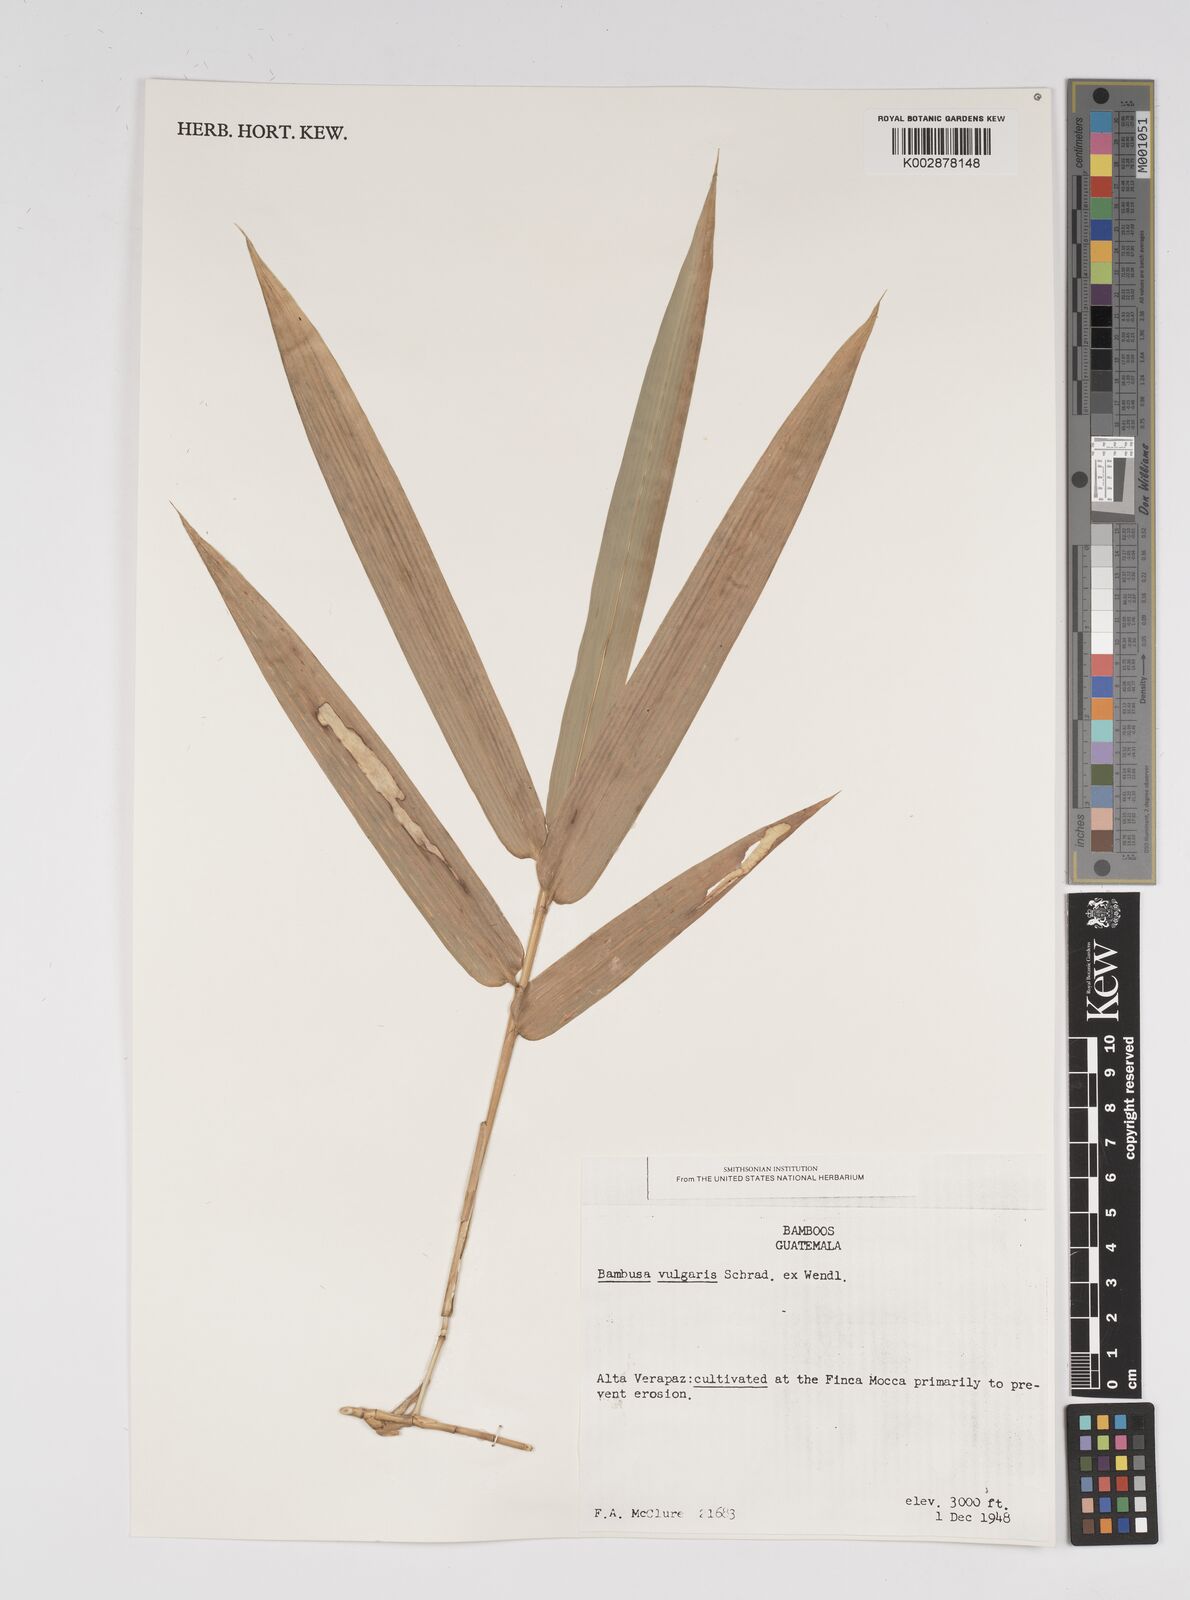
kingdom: Plantae
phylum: Tracheophyta
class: Liliopsida
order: Poales
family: Poaceae
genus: Bambusa
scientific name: Bambusa
